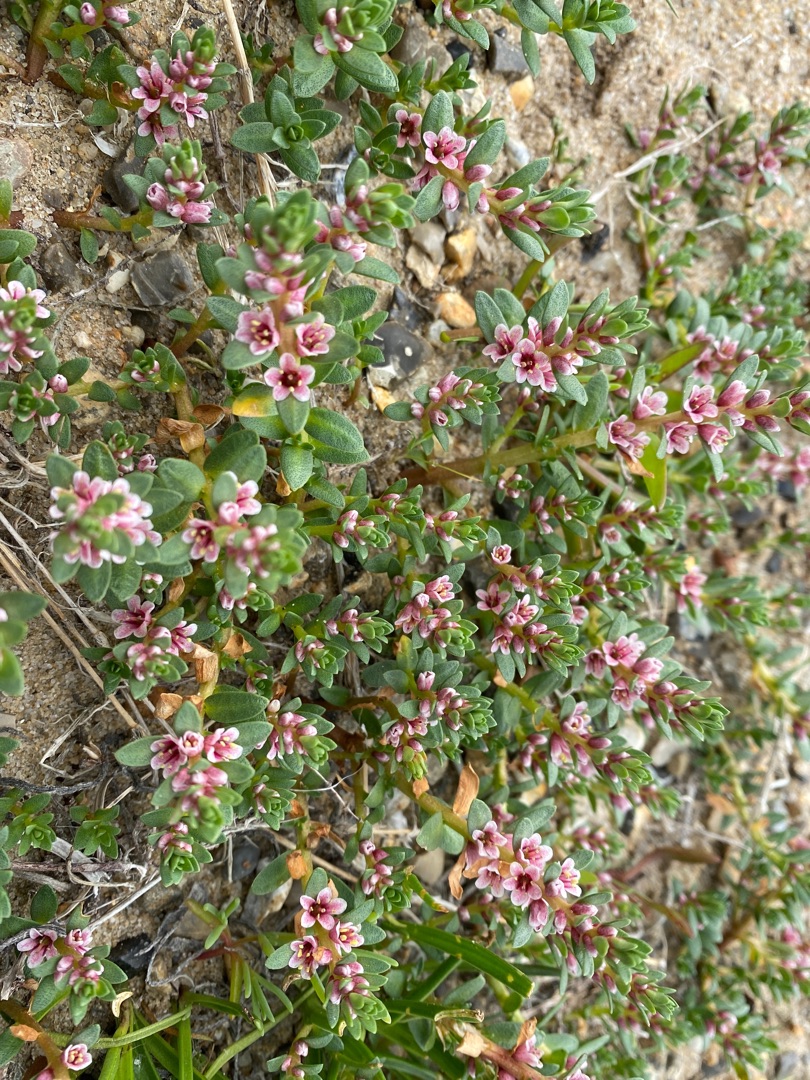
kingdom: Plantae
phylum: Tracheophyta
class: Magnoliopsida
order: Ericales
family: Primulaceae
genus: Lysimachia
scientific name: Lysimachia maritima
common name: Sandkryb
